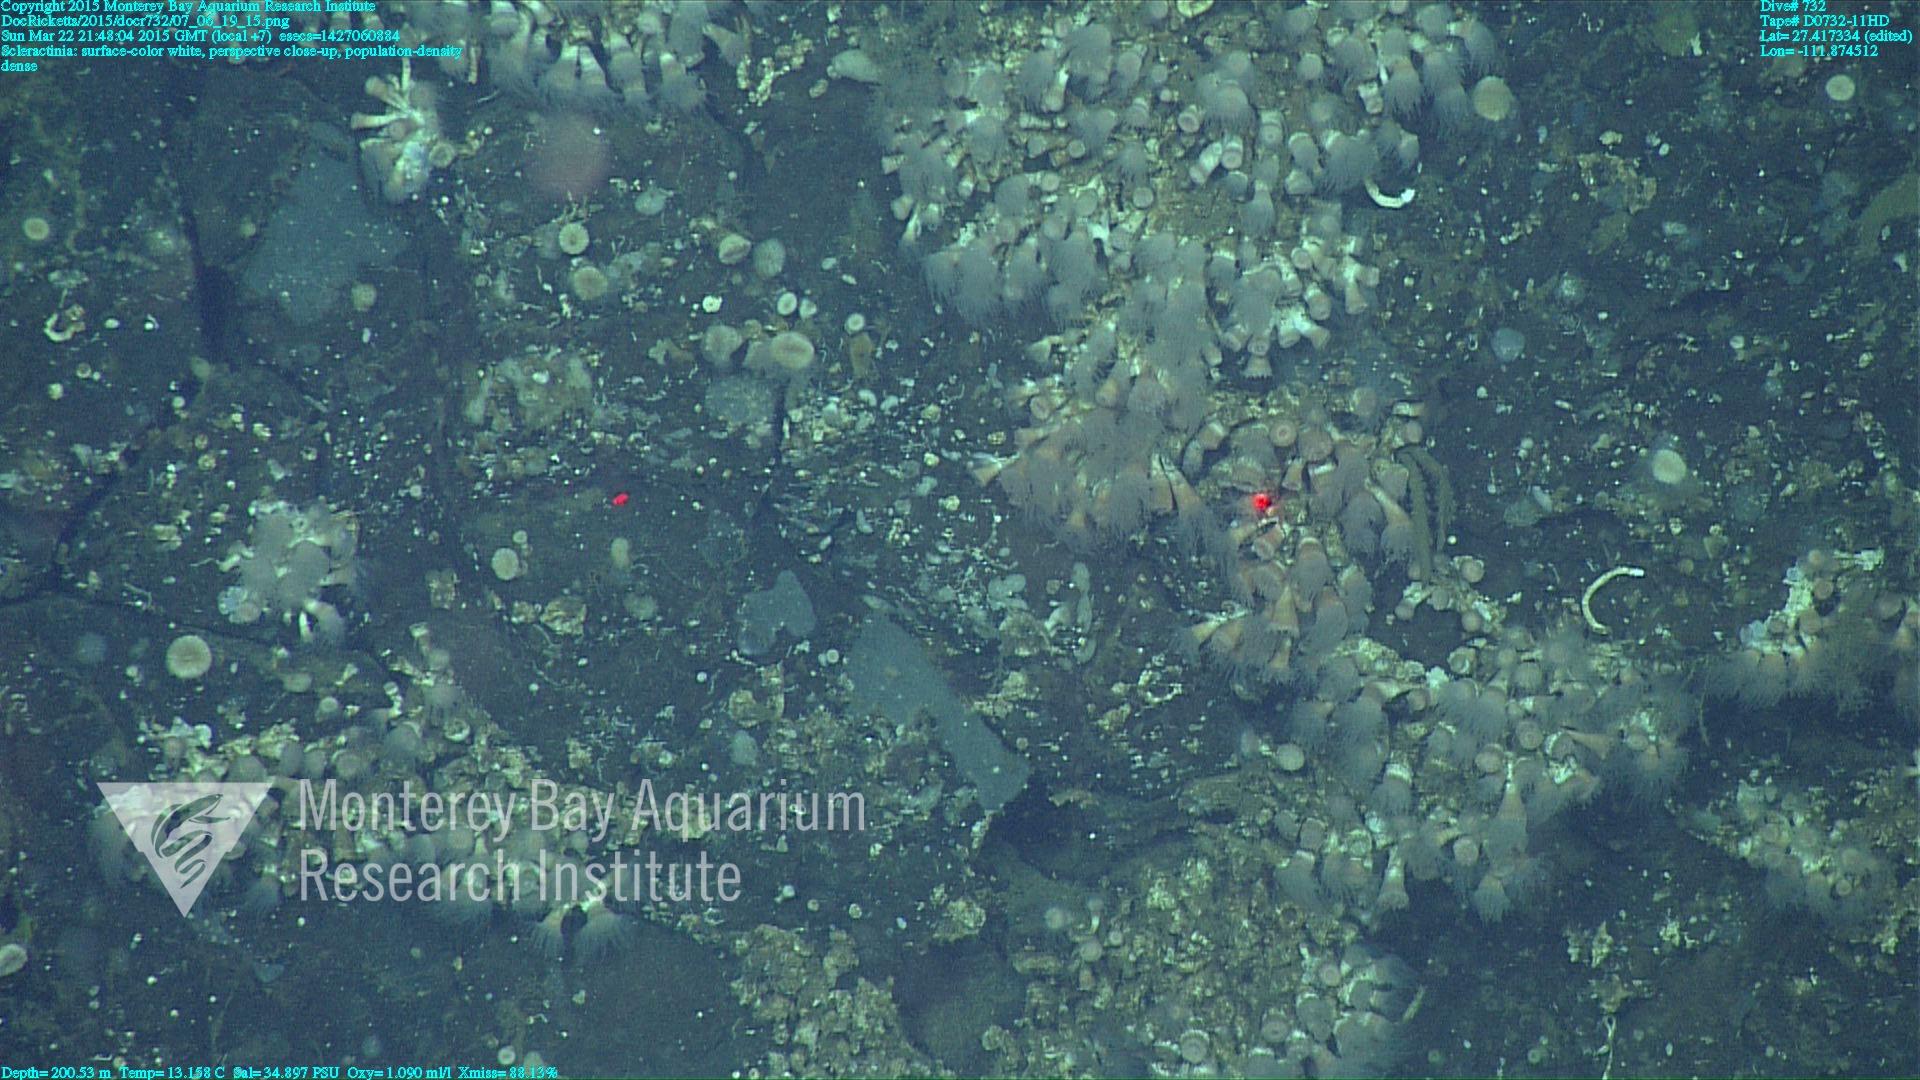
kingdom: Animalia
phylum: Cnidaria
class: Anthozoa
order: Scleractinia
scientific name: Scleractinia
